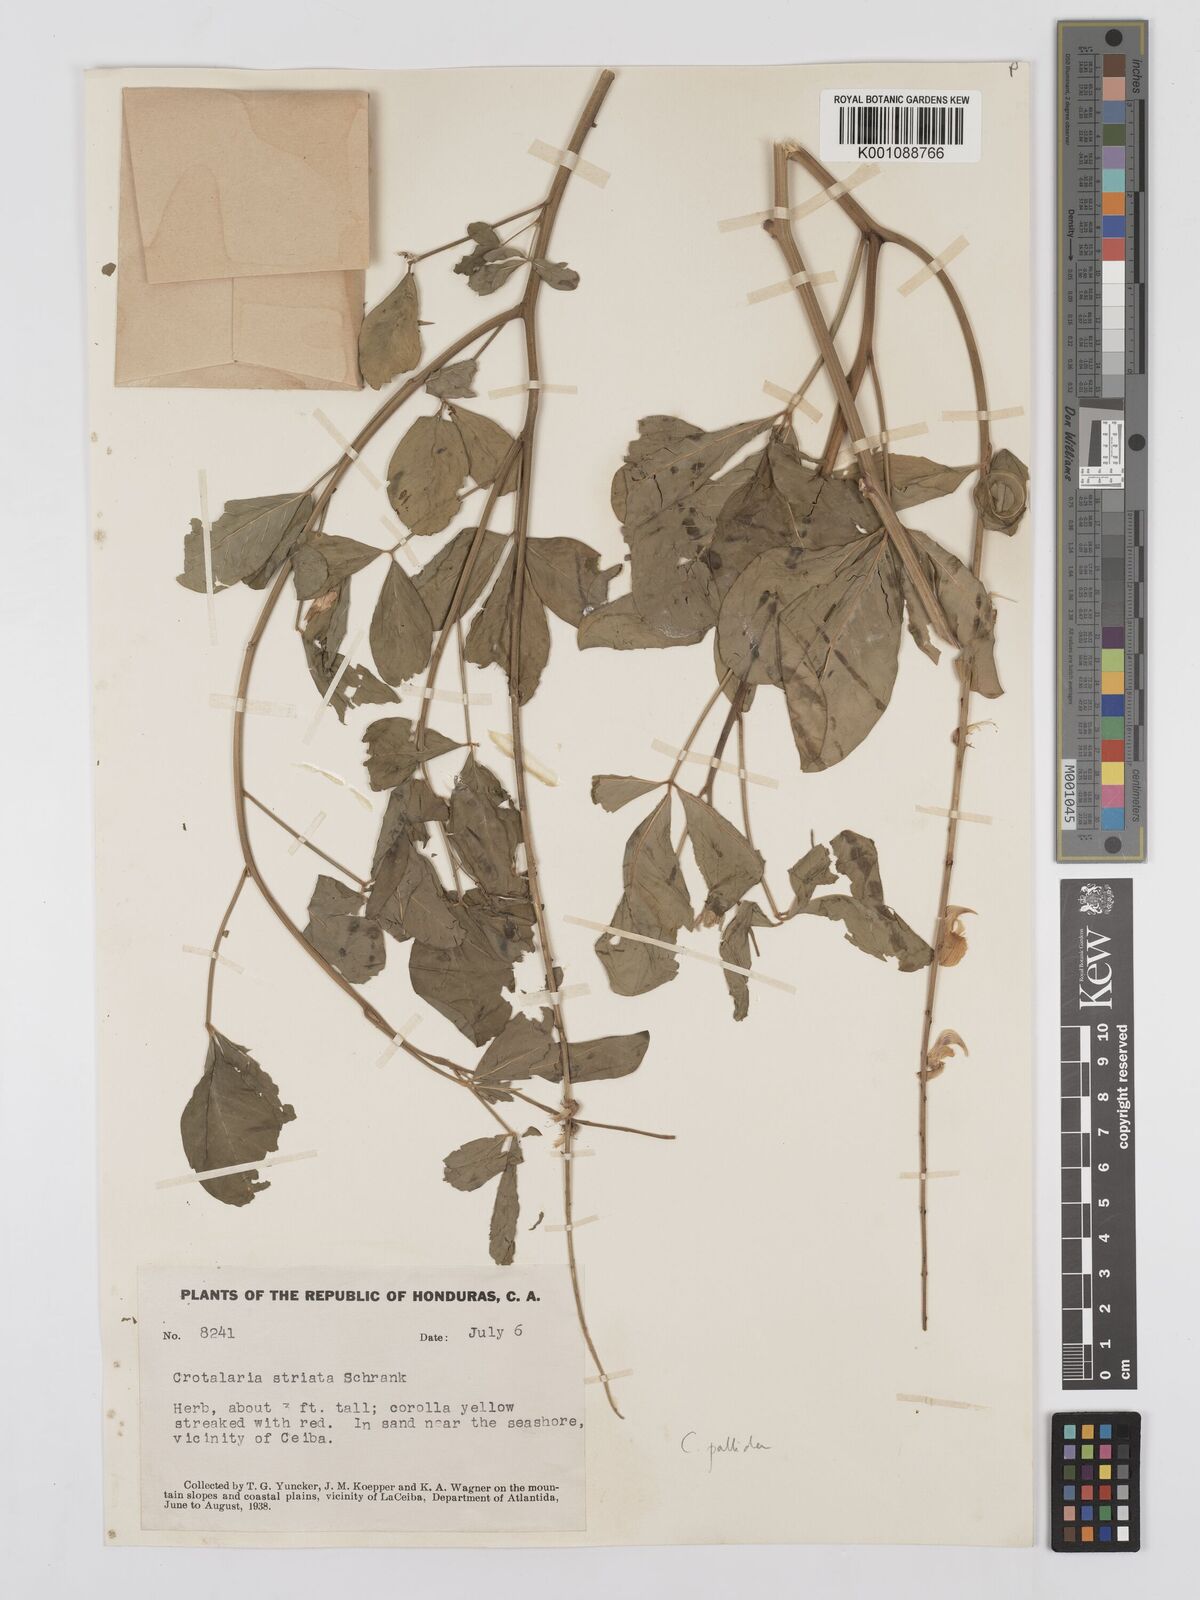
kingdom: Plantae
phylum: Tracheophyta
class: Magnoliopsida
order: Fabales
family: Fabaceae
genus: Crotalaria
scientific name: Crotalaria pallida
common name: Smooth rattlebox
